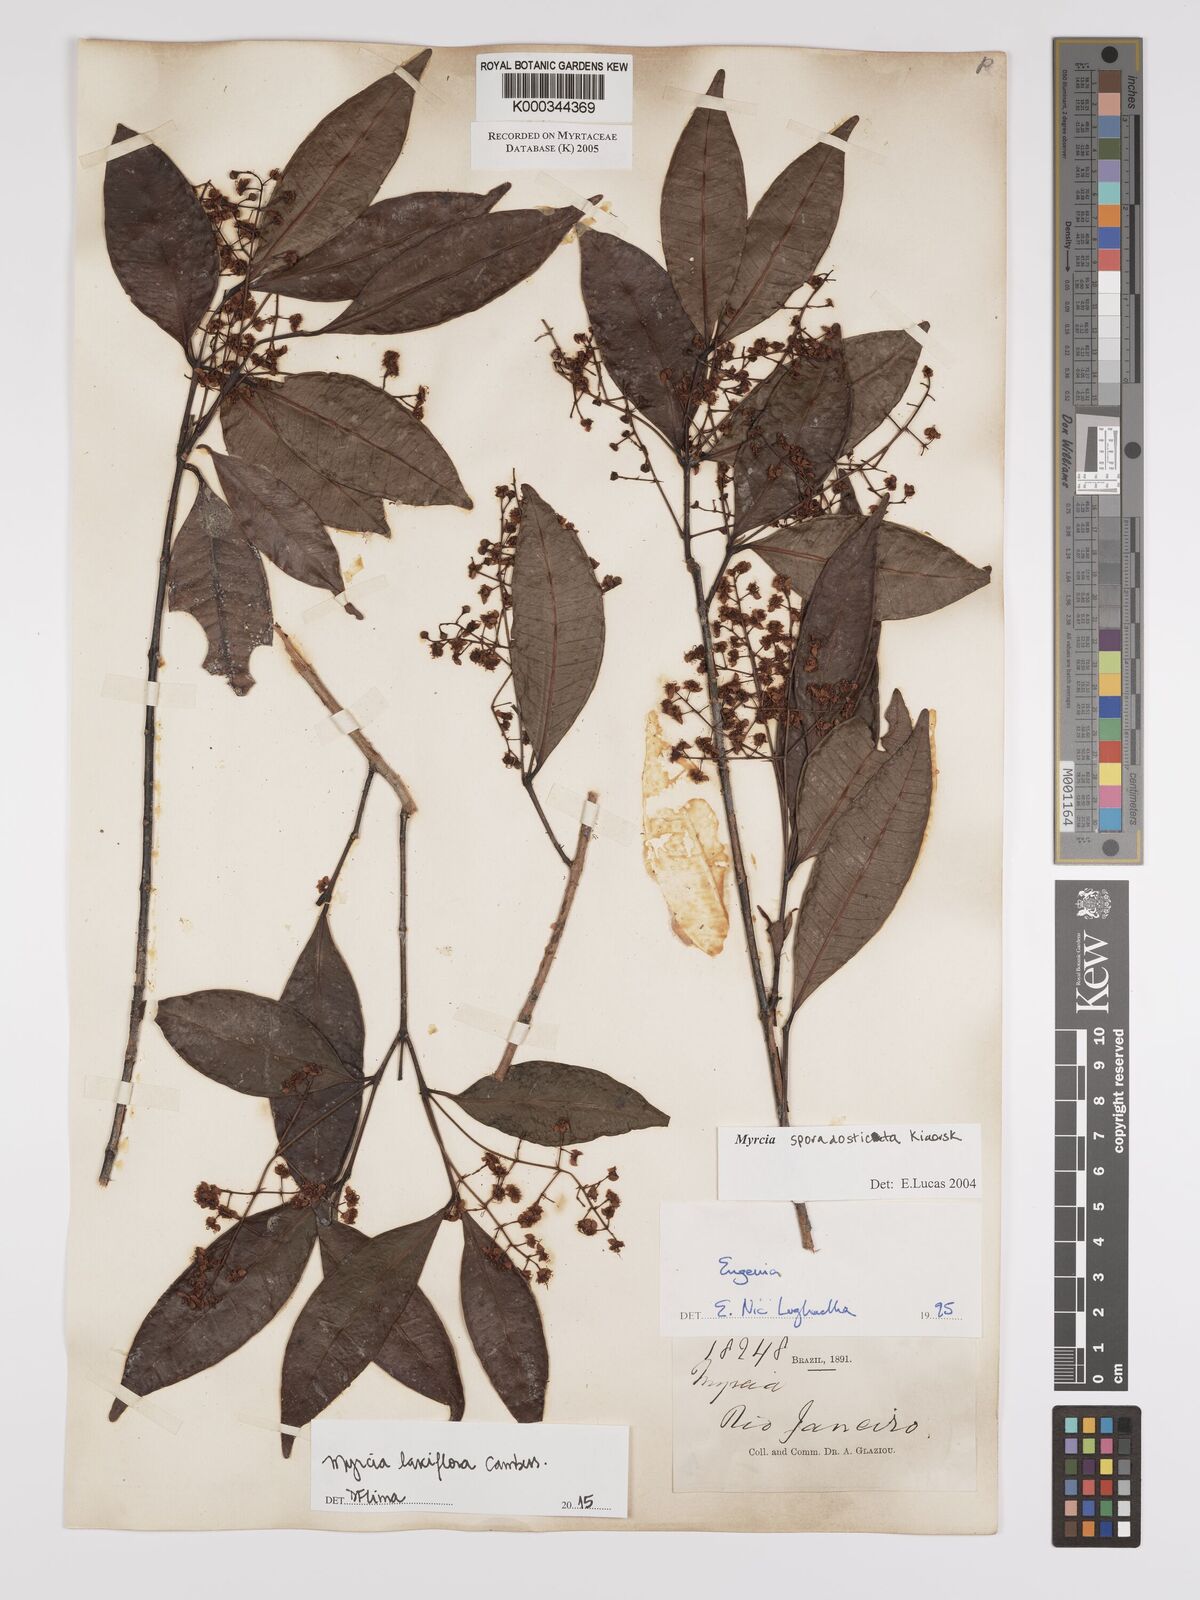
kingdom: Plantae
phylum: Tracheophyta
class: Magnoliopsida
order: Myrtales
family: Myrtaceae
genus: Myrcia
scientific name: Myrcia sporadosticta
